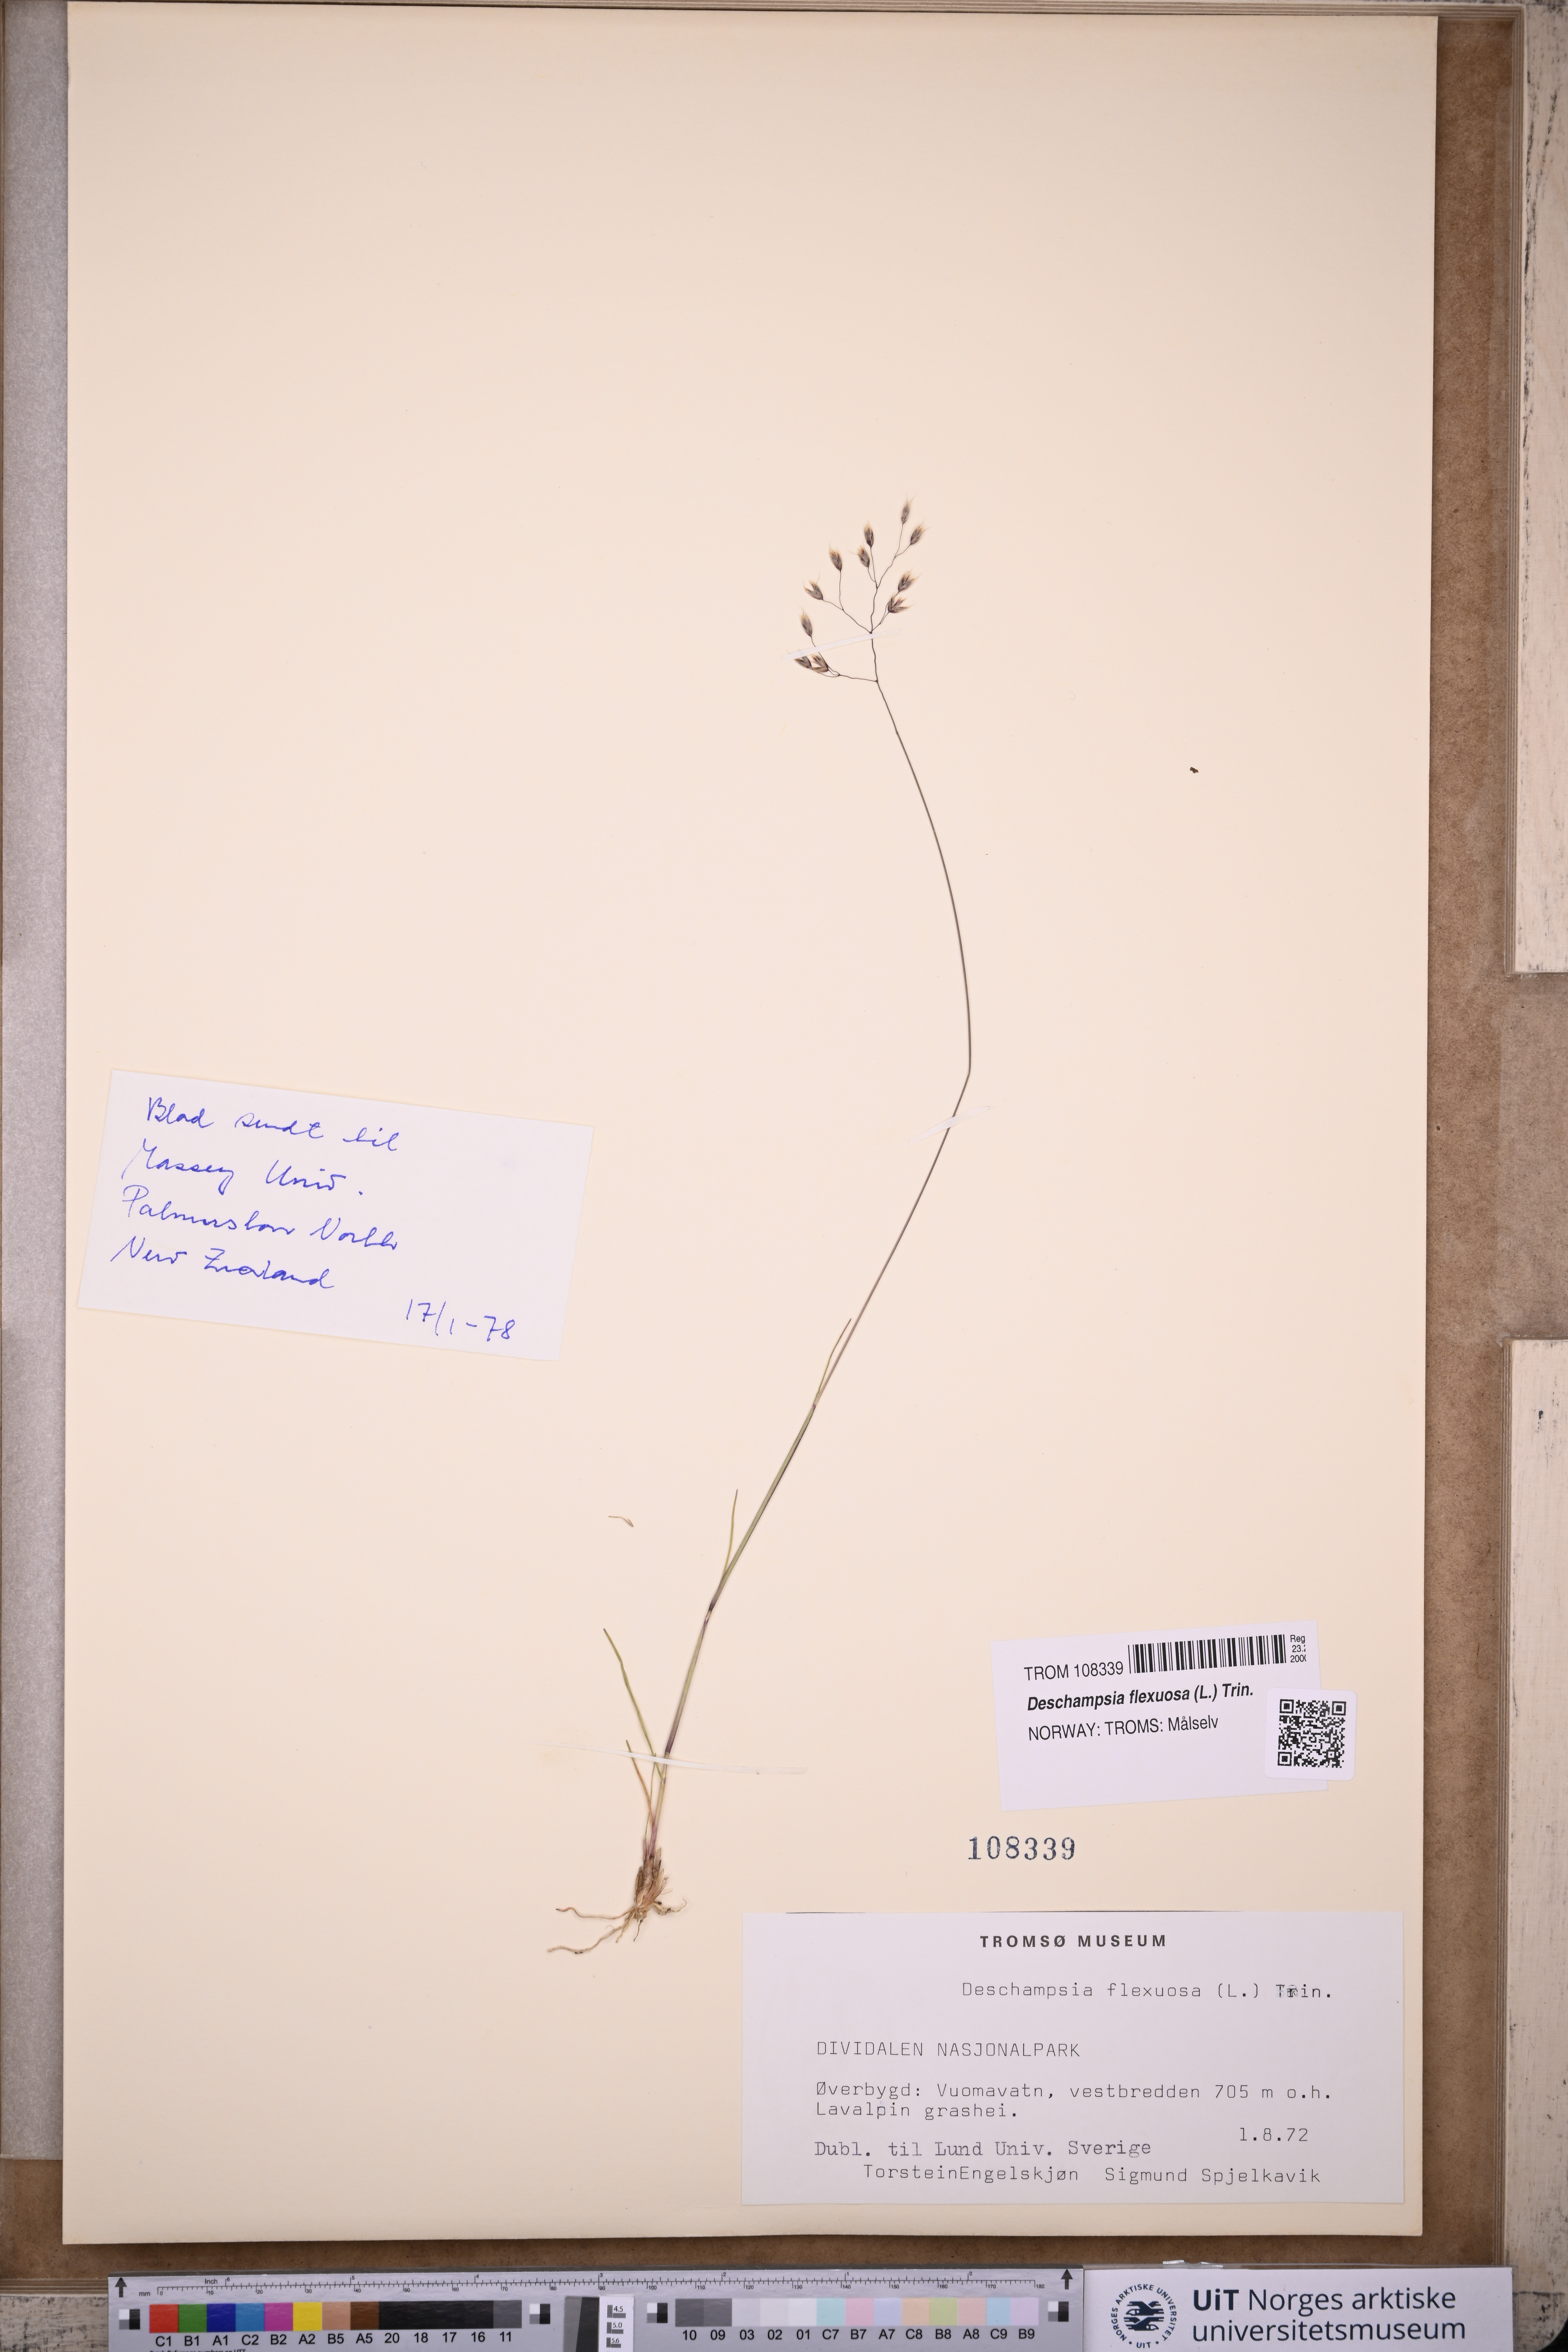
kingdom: Plantae
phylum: Tracheophyta
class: Liliopsida
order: Poales
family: Poaceae
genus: Avenella
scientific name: Avenella flexuosa
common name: Wavy hairgrass
